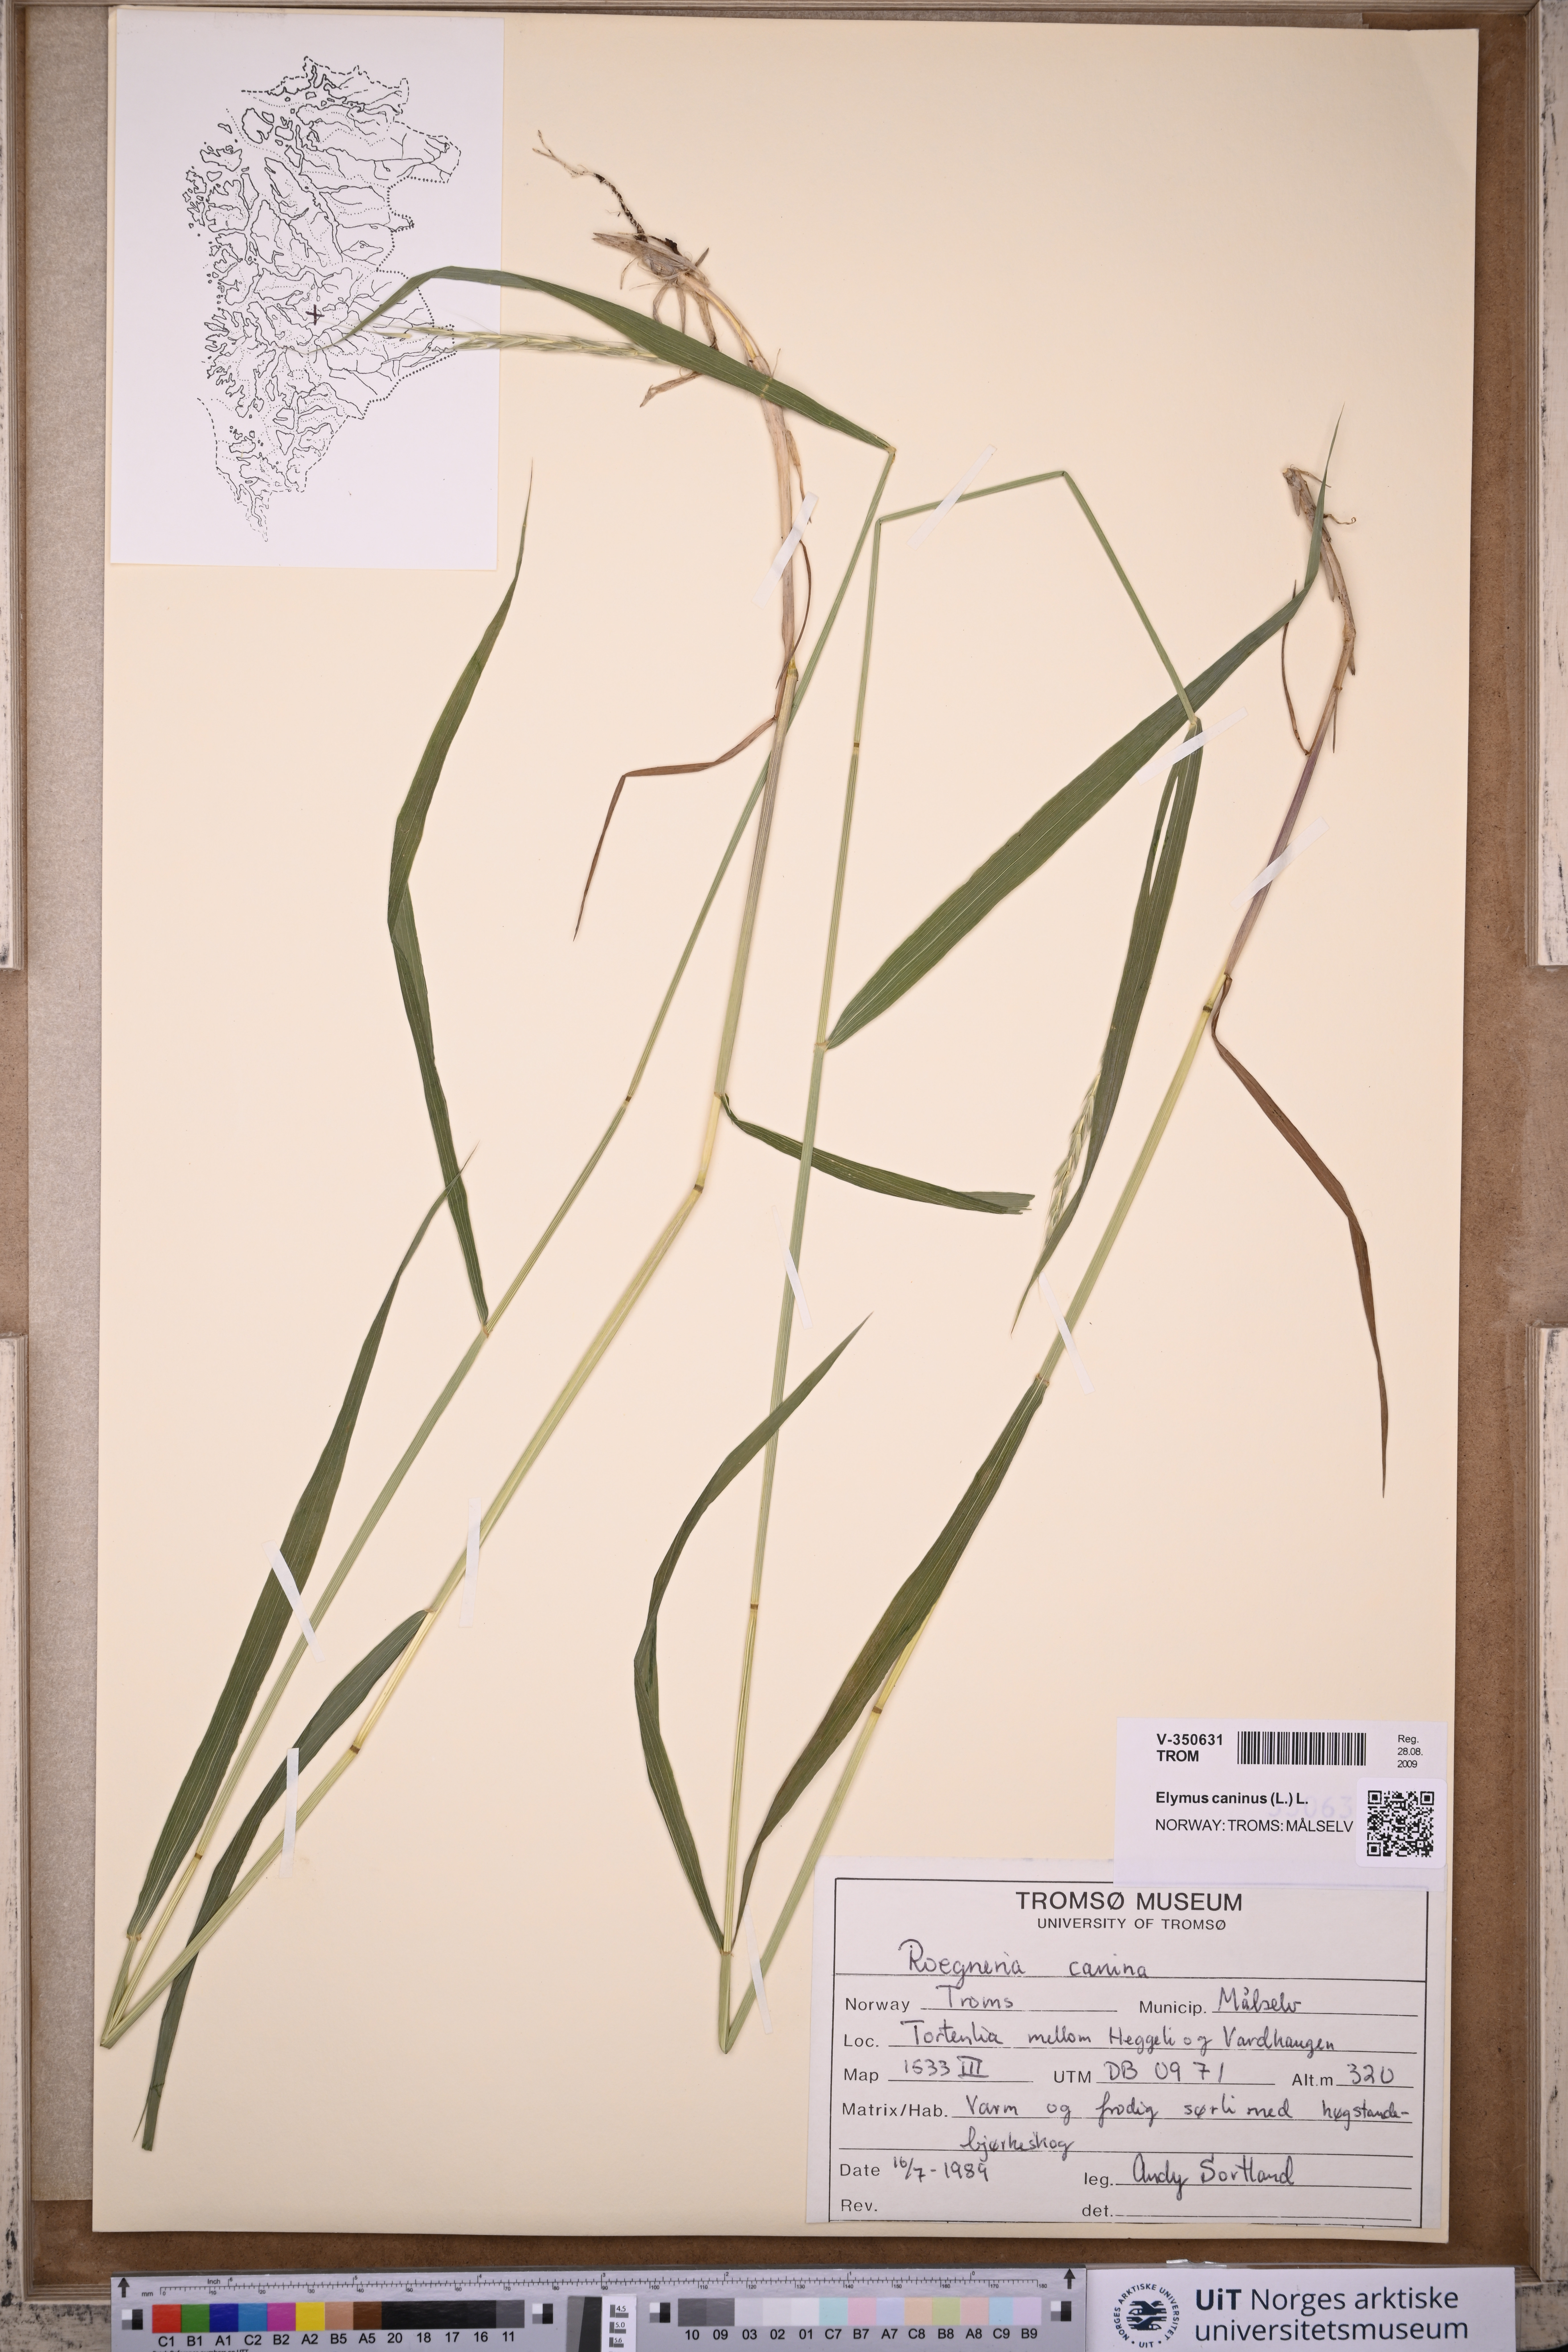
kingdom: Plantae
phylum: Tracheophyta
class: Liliopsida
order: Poales
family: Poaceae
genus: Elymus
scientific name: Elymus caninus
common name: Bearded couch
